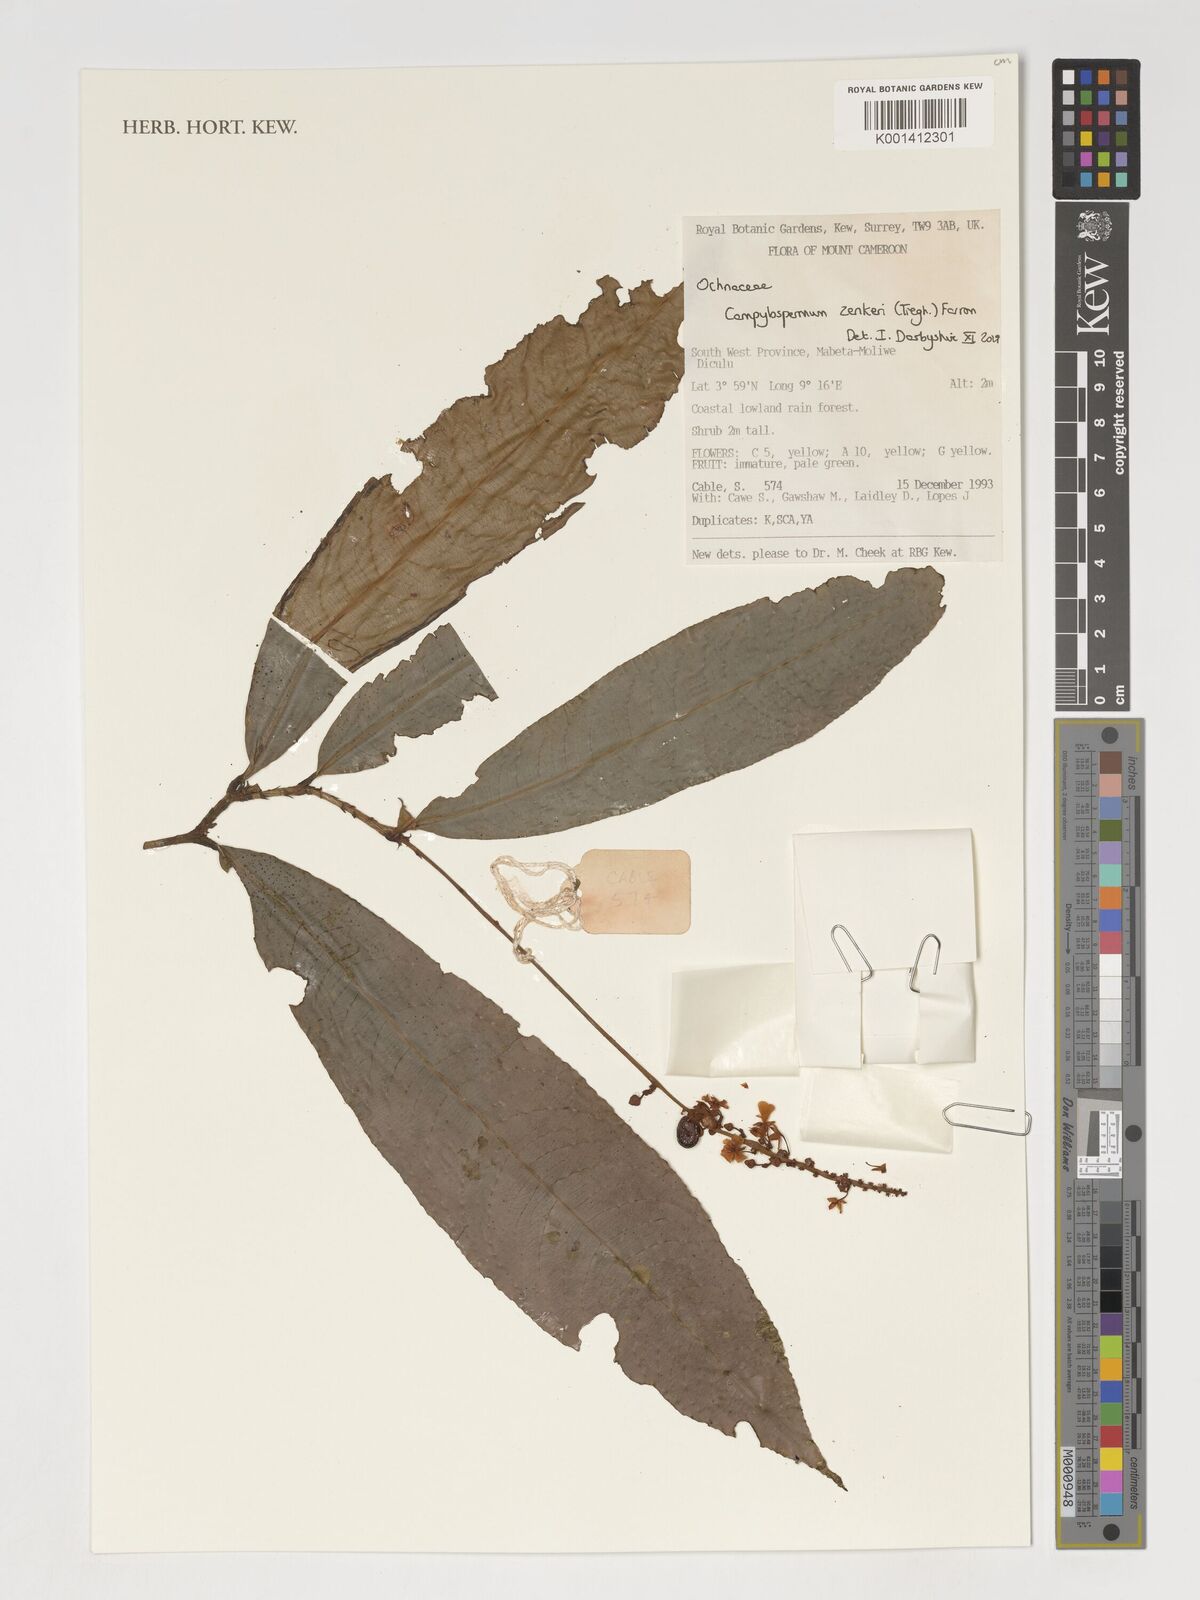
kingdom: Plantae
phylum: Tracheophyta
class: Magnoliopsida
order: Malpighiales
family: Ochnaceae
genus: Campylospermum
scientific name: Campylospermum zenkeri
